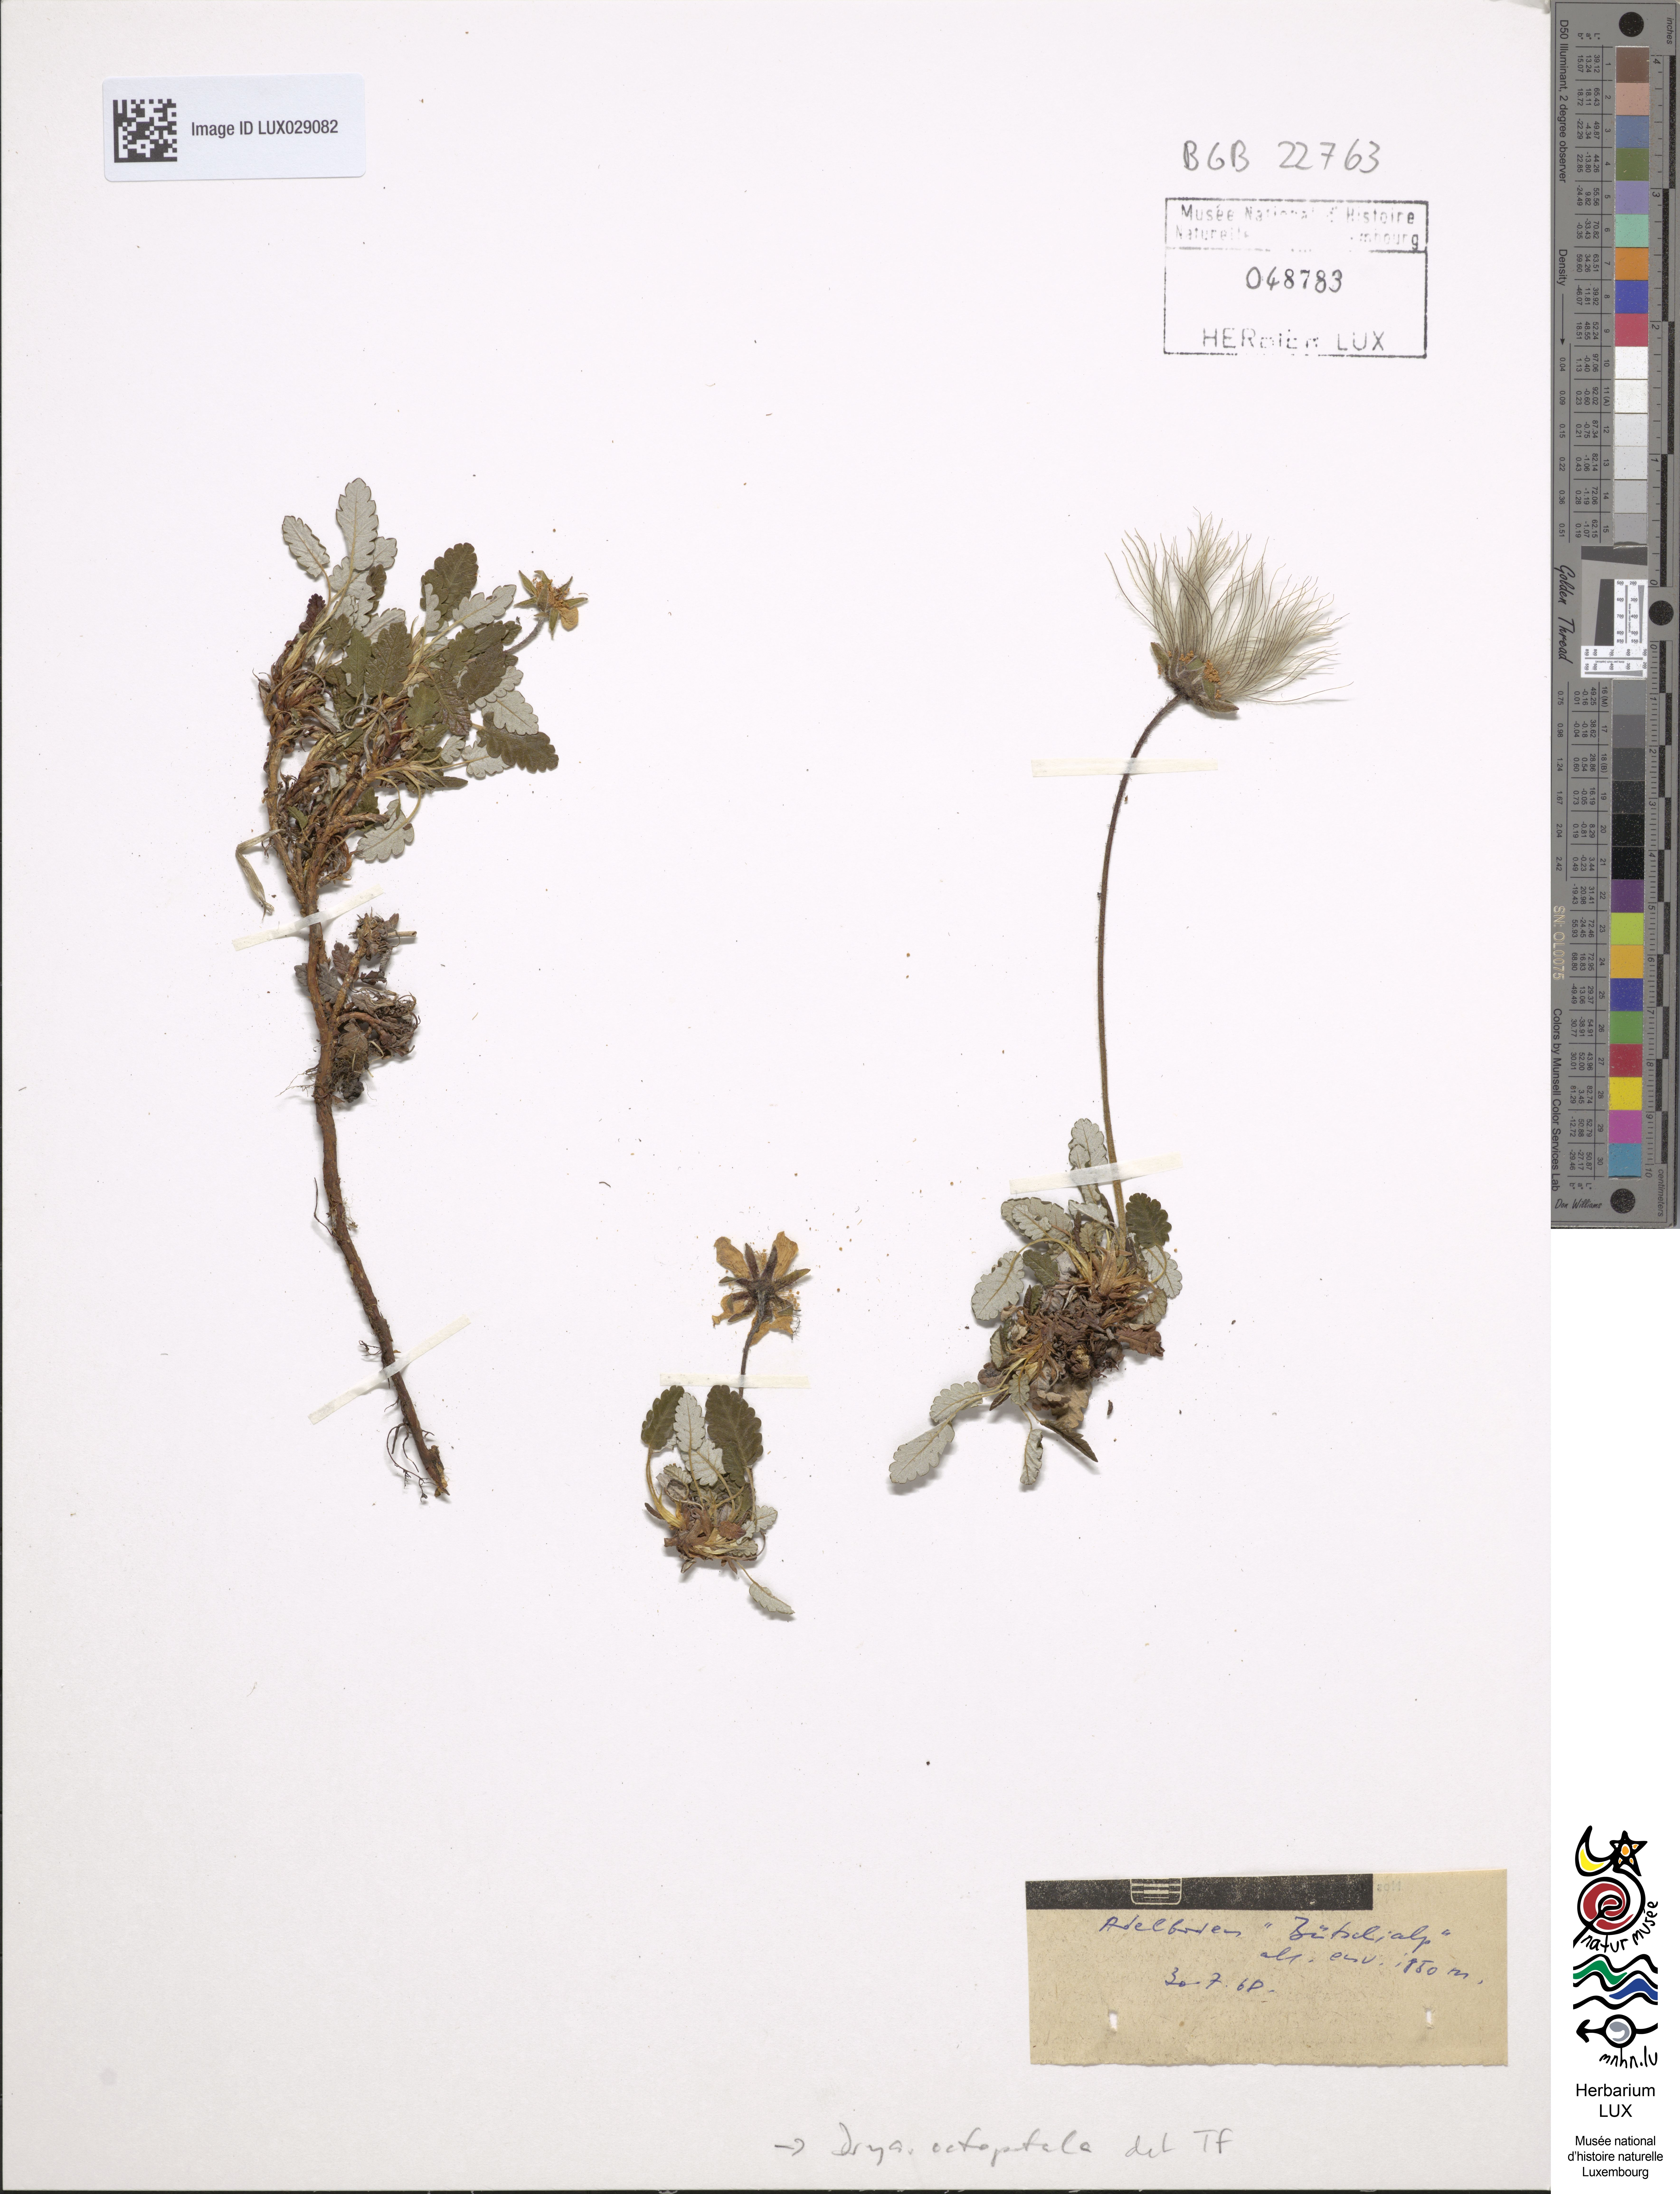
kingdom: Plantae
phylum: Tracheophyta
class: Magnoliopsida
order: Rosales
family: Rosaceae
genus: Dryas
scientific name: Dryas octopetala
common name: Eight-petal mountain-avens
